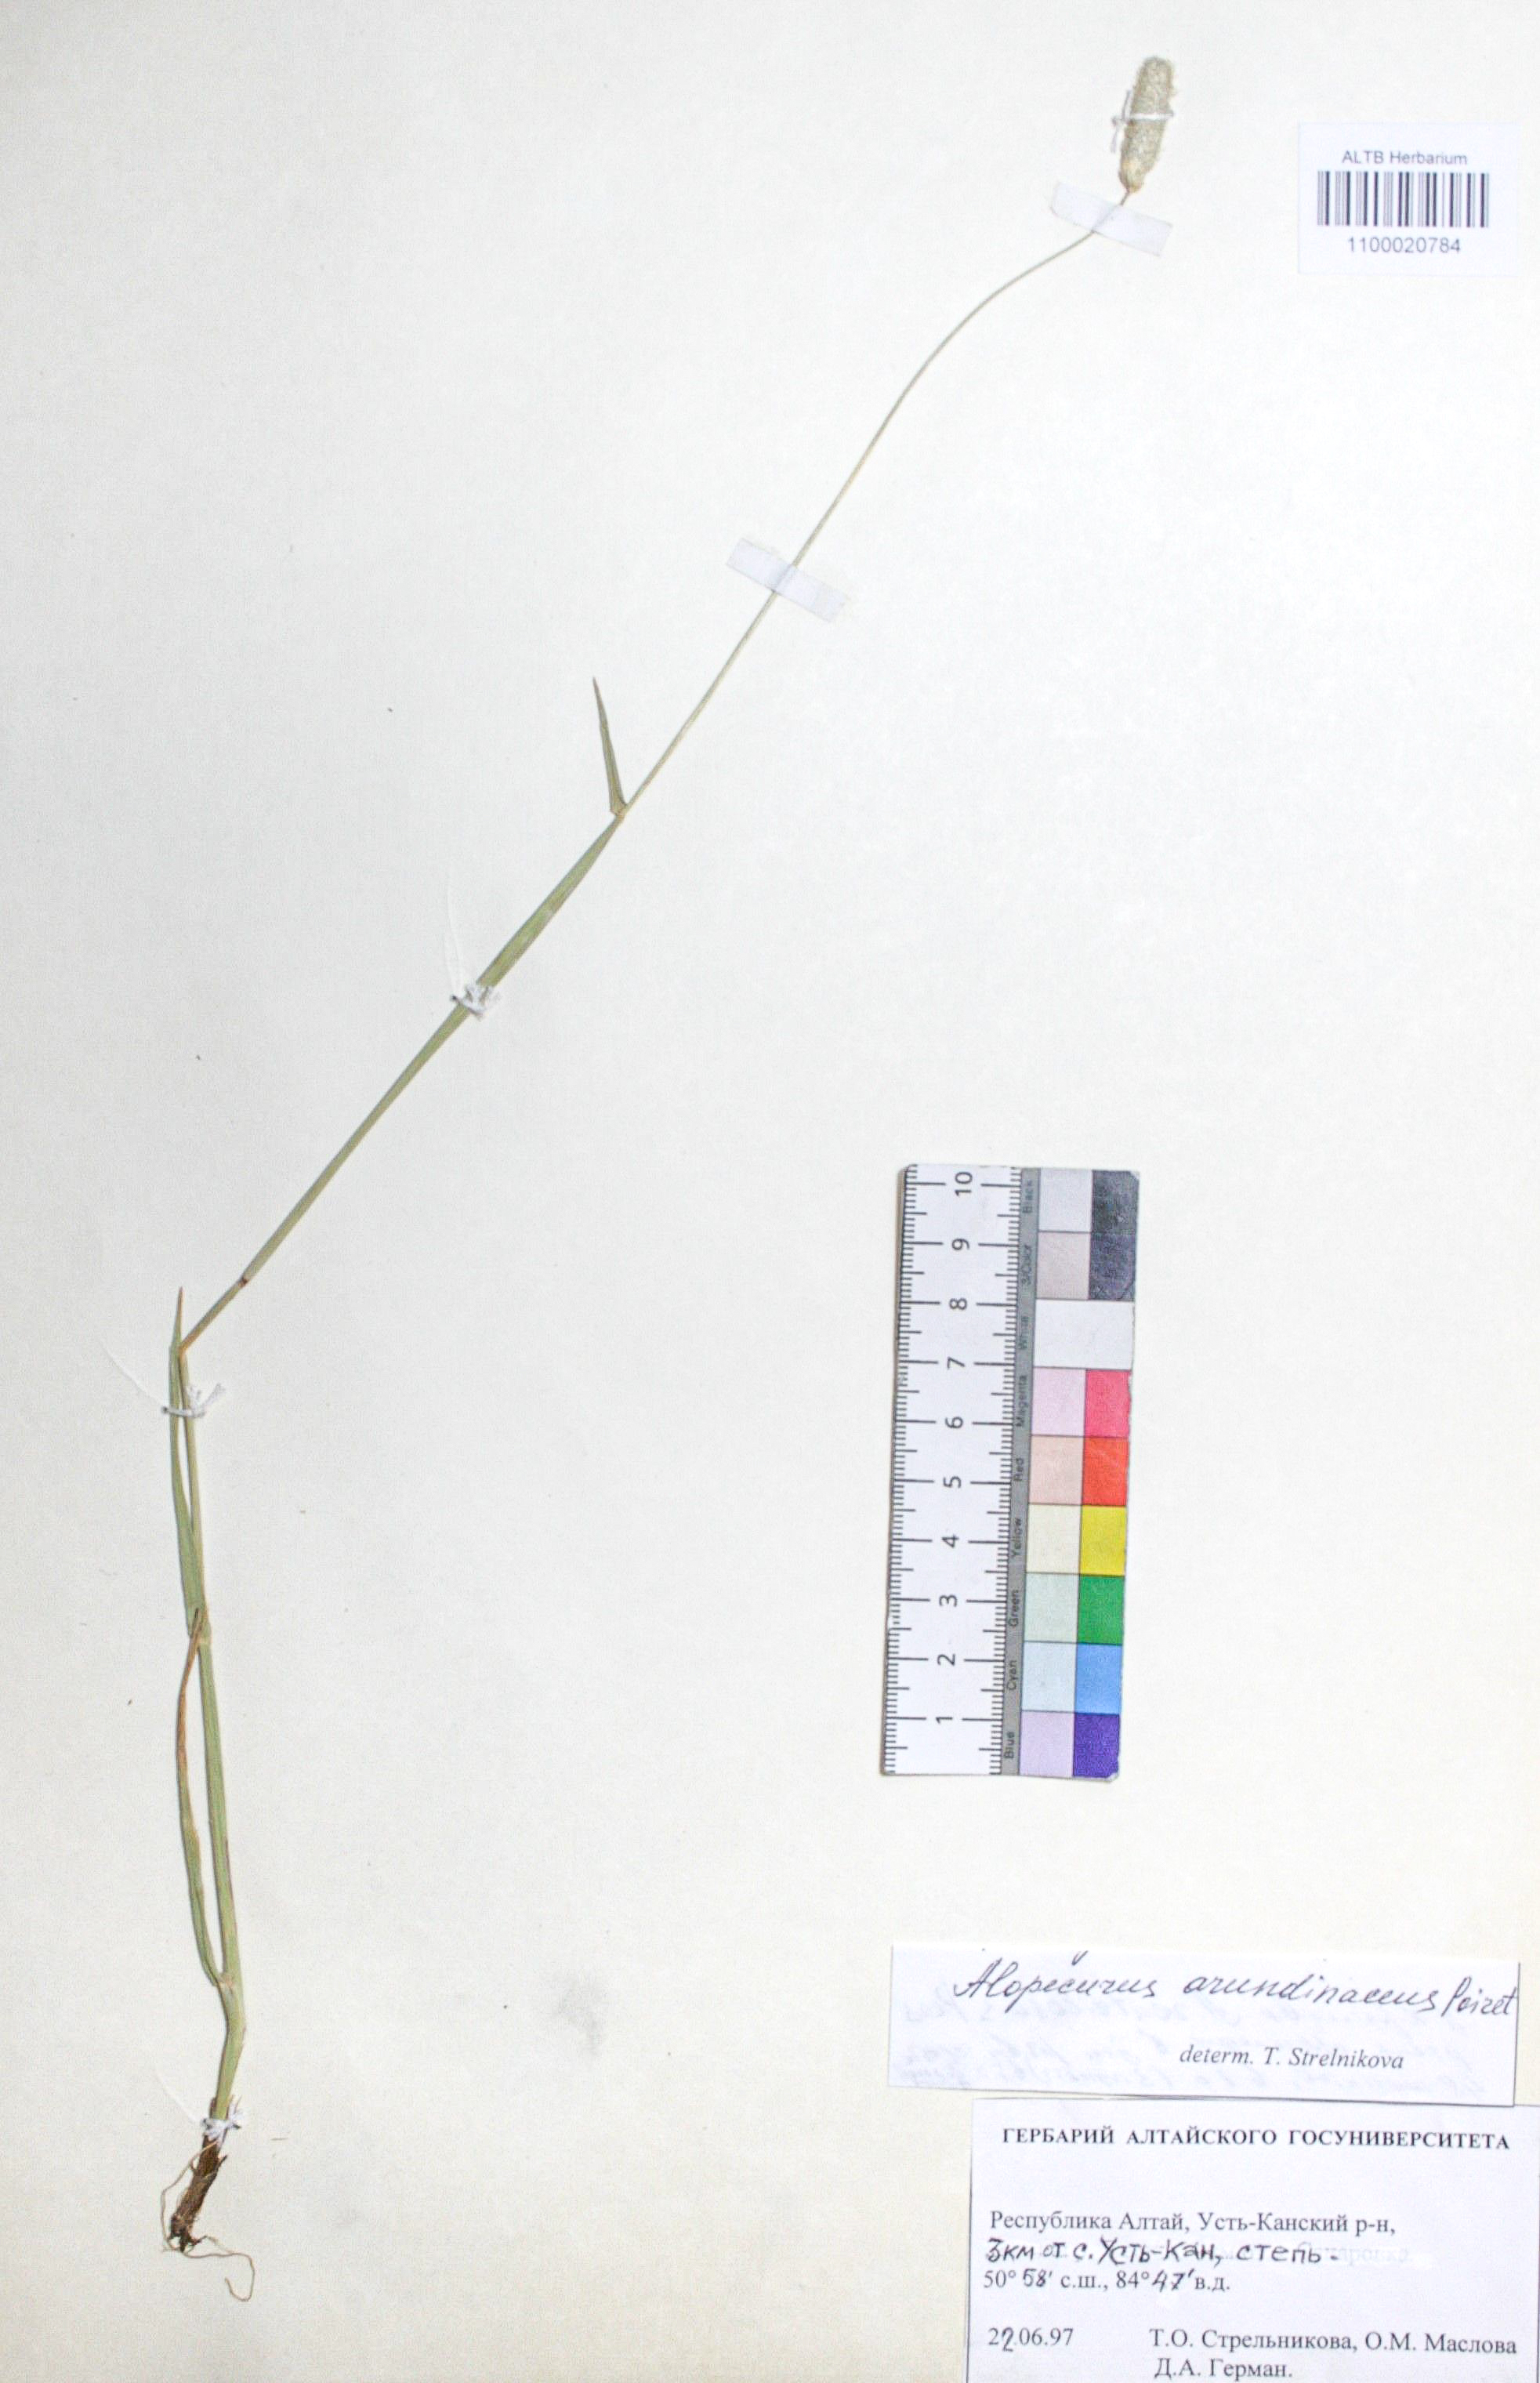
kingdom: Plantae
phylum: Tracheophyta
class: Liliopsida
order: Poales
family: Poaceae
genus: Alopecurus
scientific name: Alopecurus arundinaceus
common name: Creeping meadow foxtail
